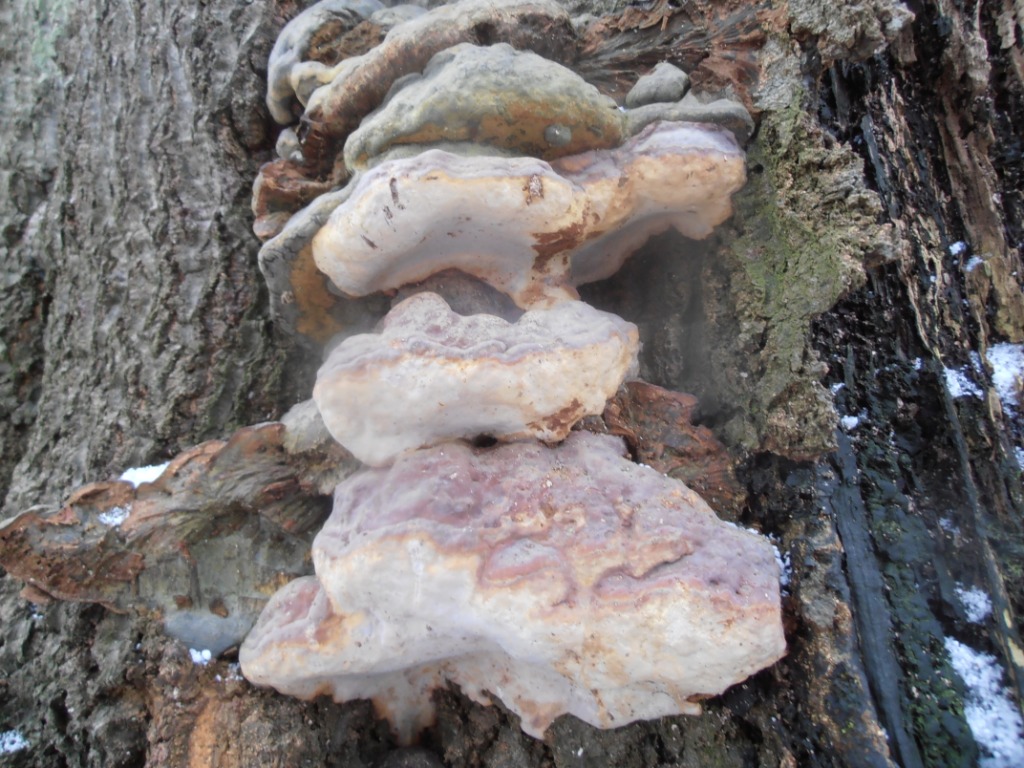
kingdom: Fungi
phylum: Basidiomycota
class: Agaricomycetes
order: Polyporales
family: Polyporaceae
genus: Ganoderma
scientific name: Ganoderma pfeifferi
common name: kobberrød lakporesvamp
